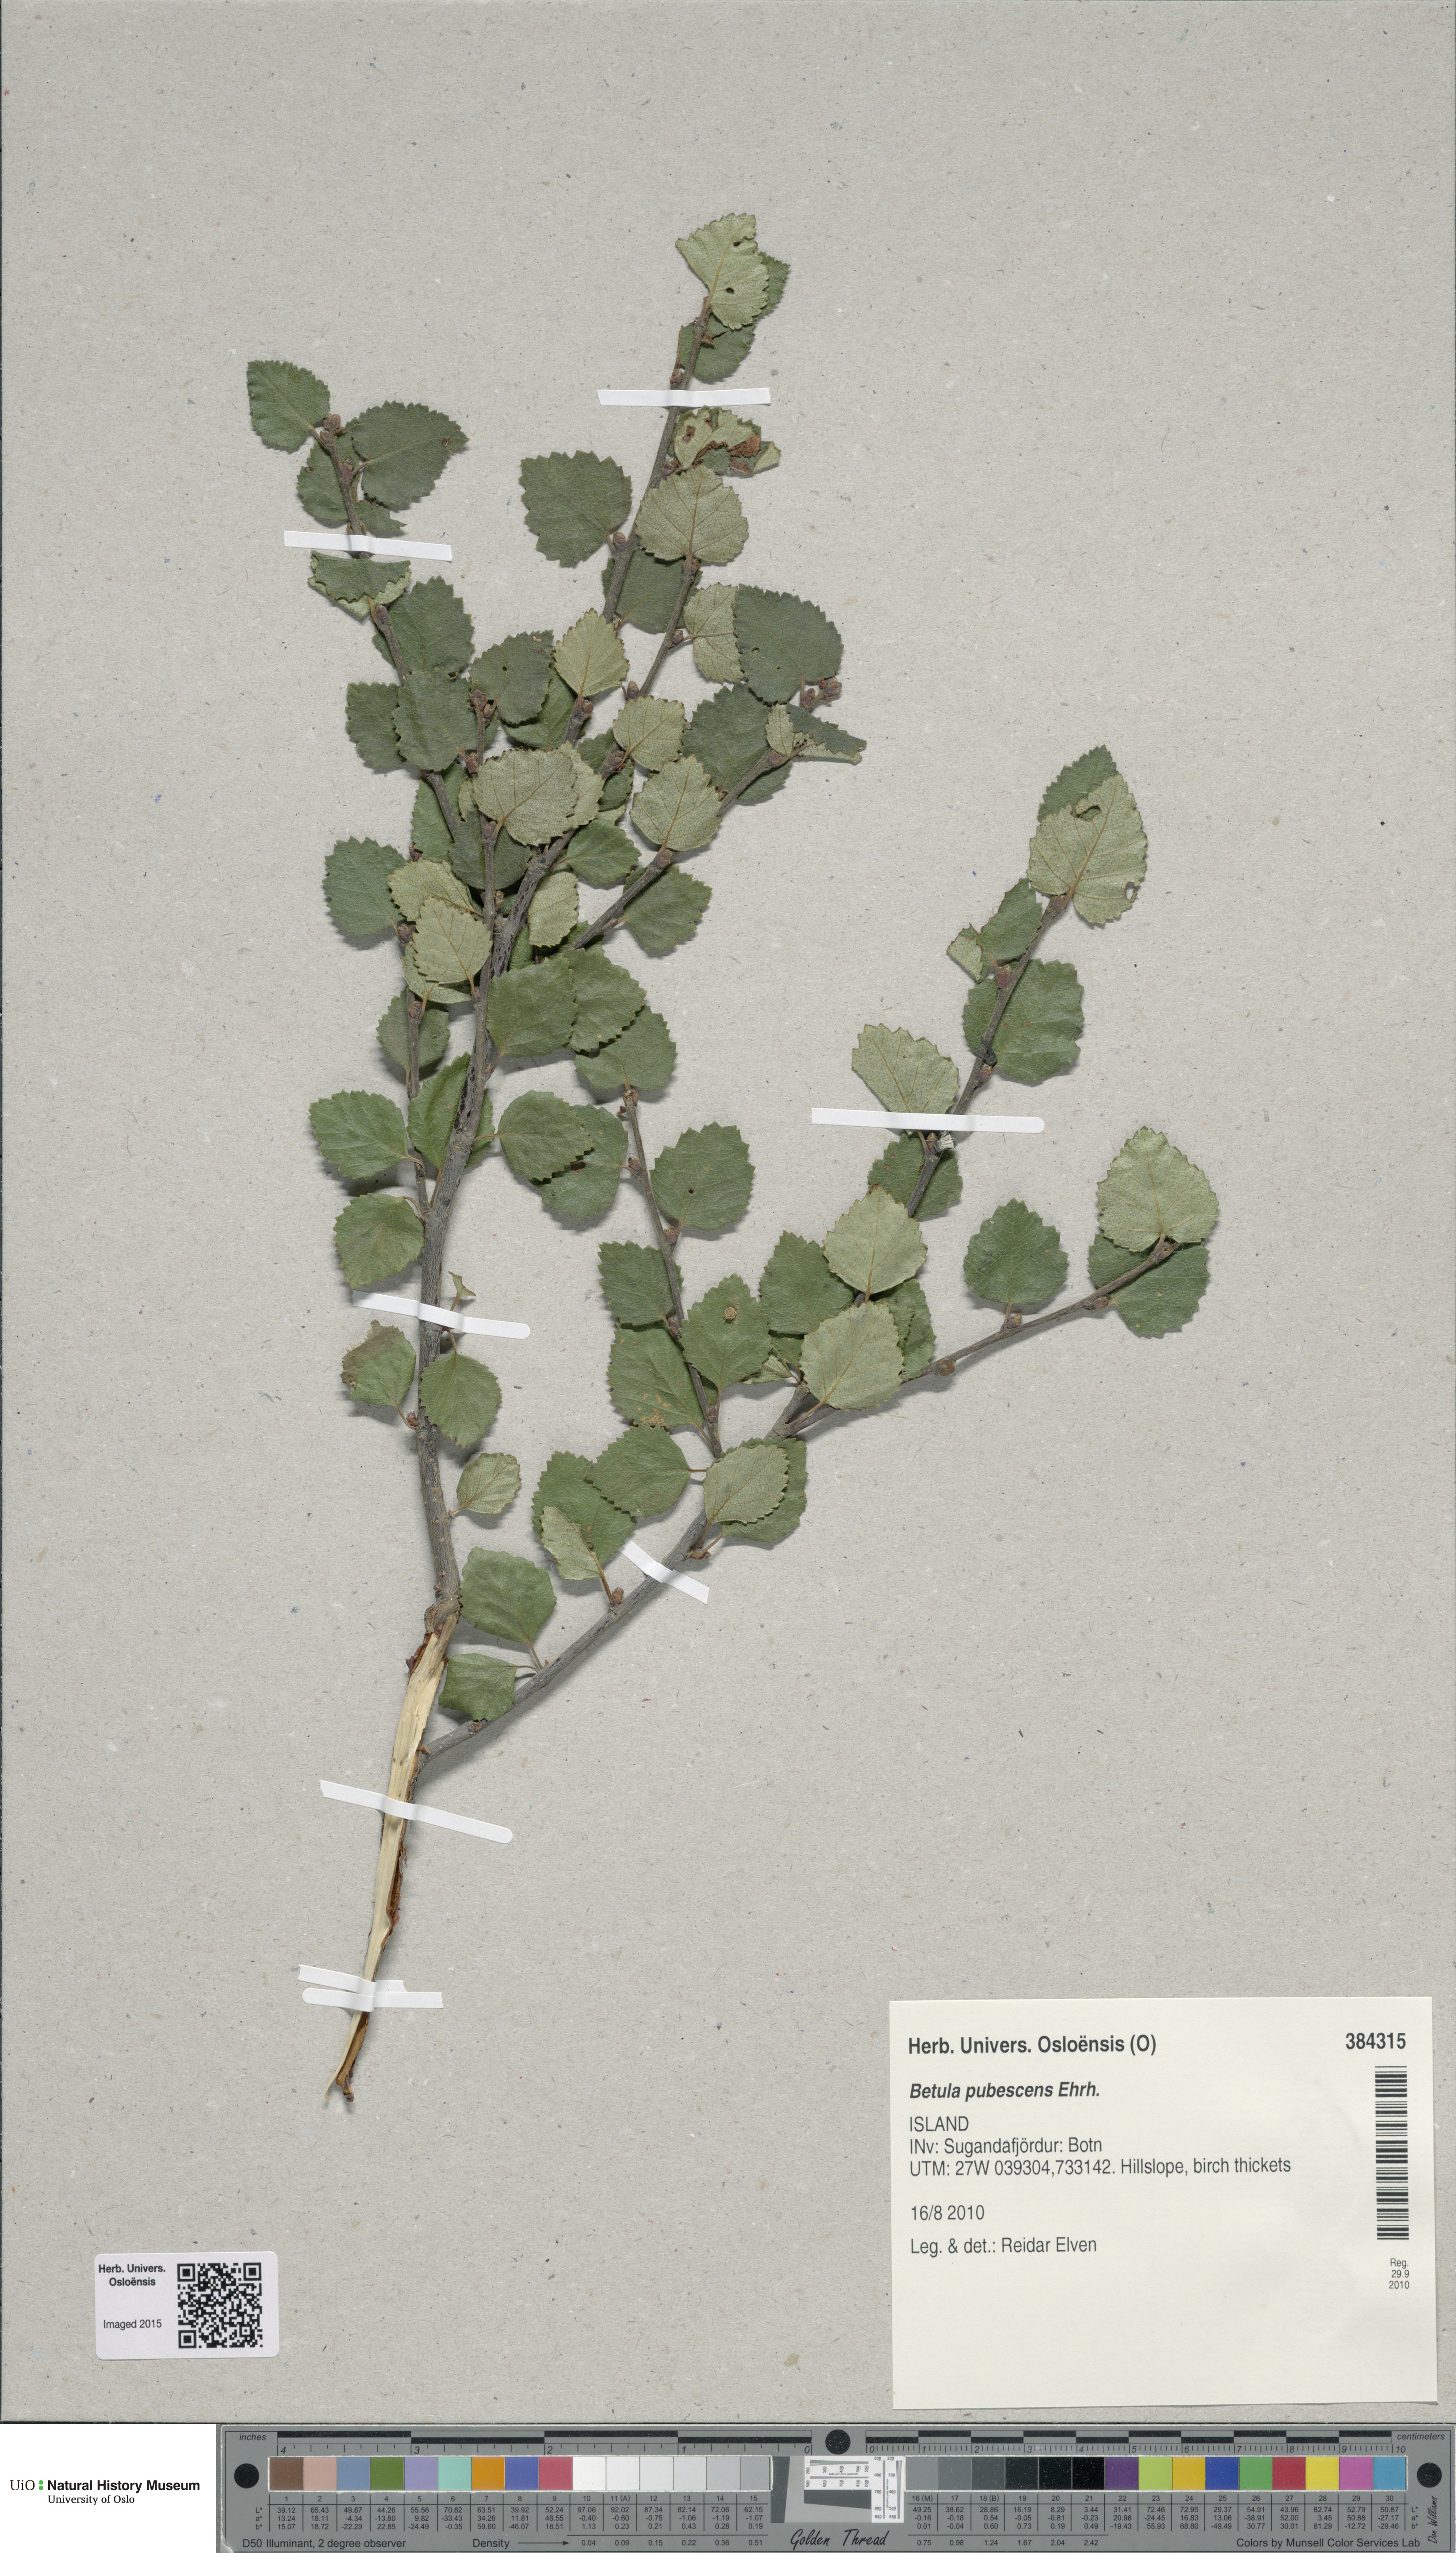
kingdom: Plantae
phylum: Tracheophyta
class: Magnoliopsida
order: Fagales
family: Betulaceae
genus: Betula
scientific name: Betula pubescens
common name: Downy birch
